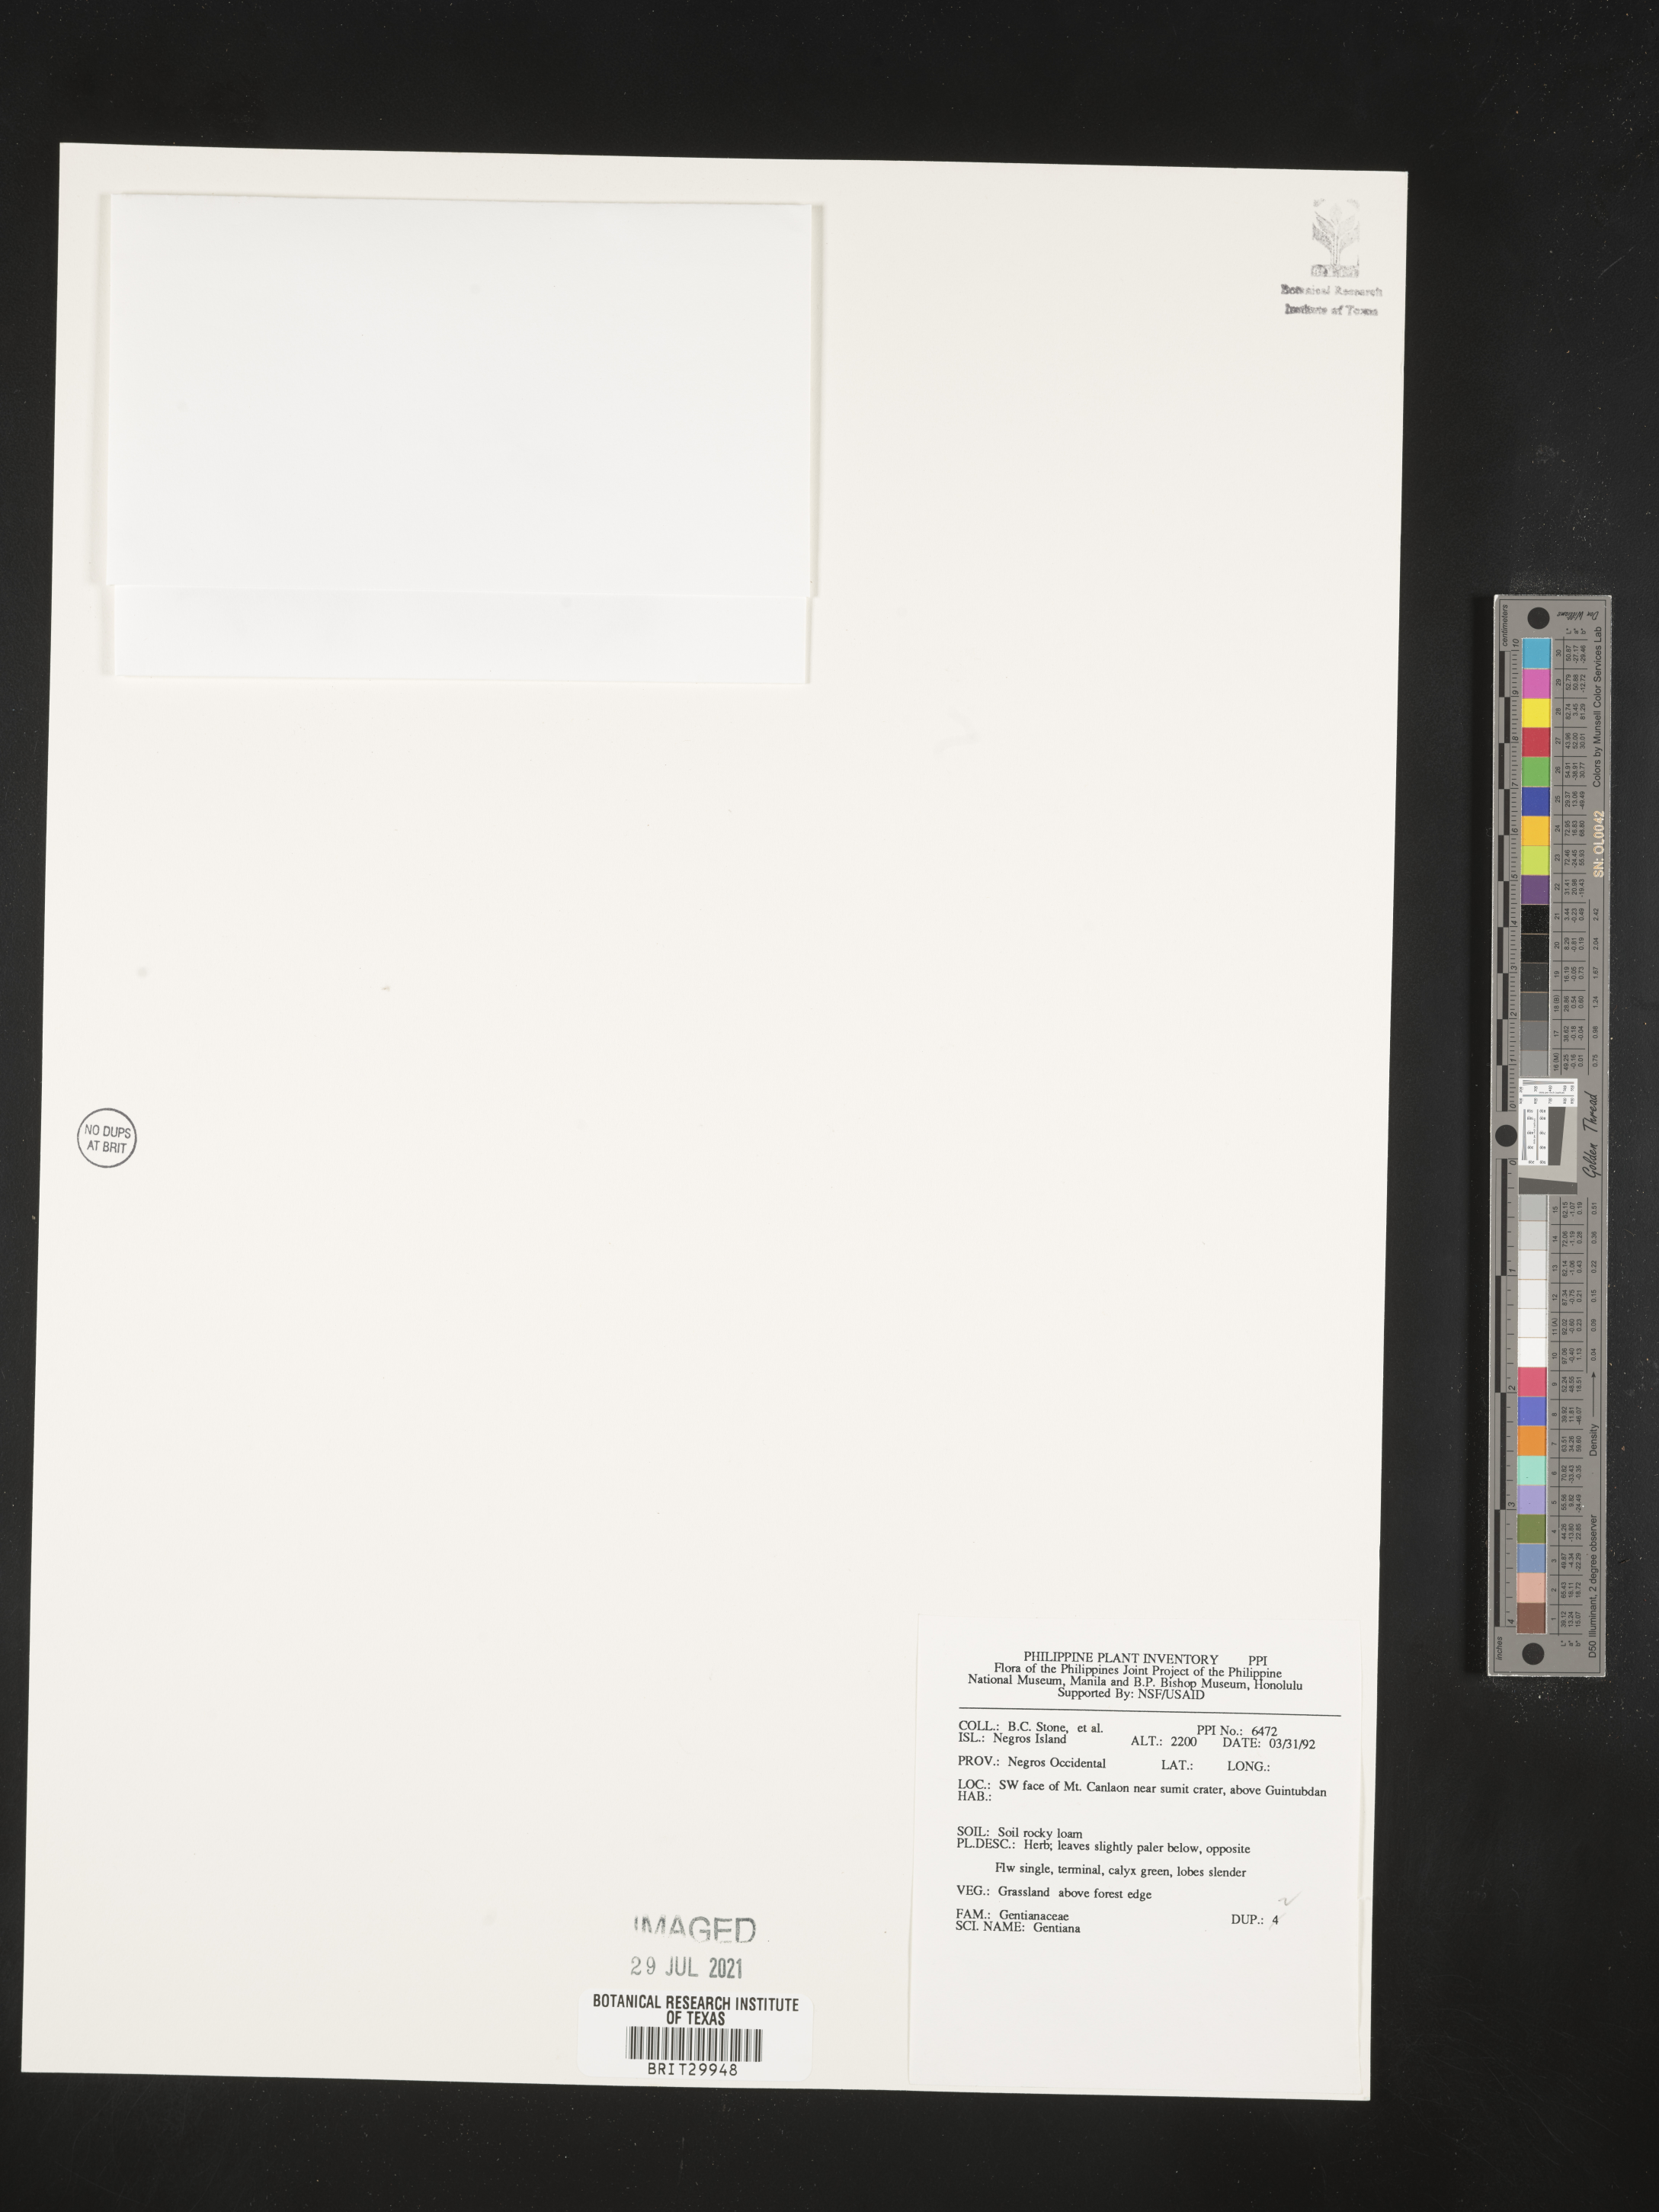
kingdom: Plantae
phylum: Tracheophyta
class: Magnoliopsida
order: Gentianales
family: Gentianaceae
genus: Gentiana
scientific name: Gentiana
